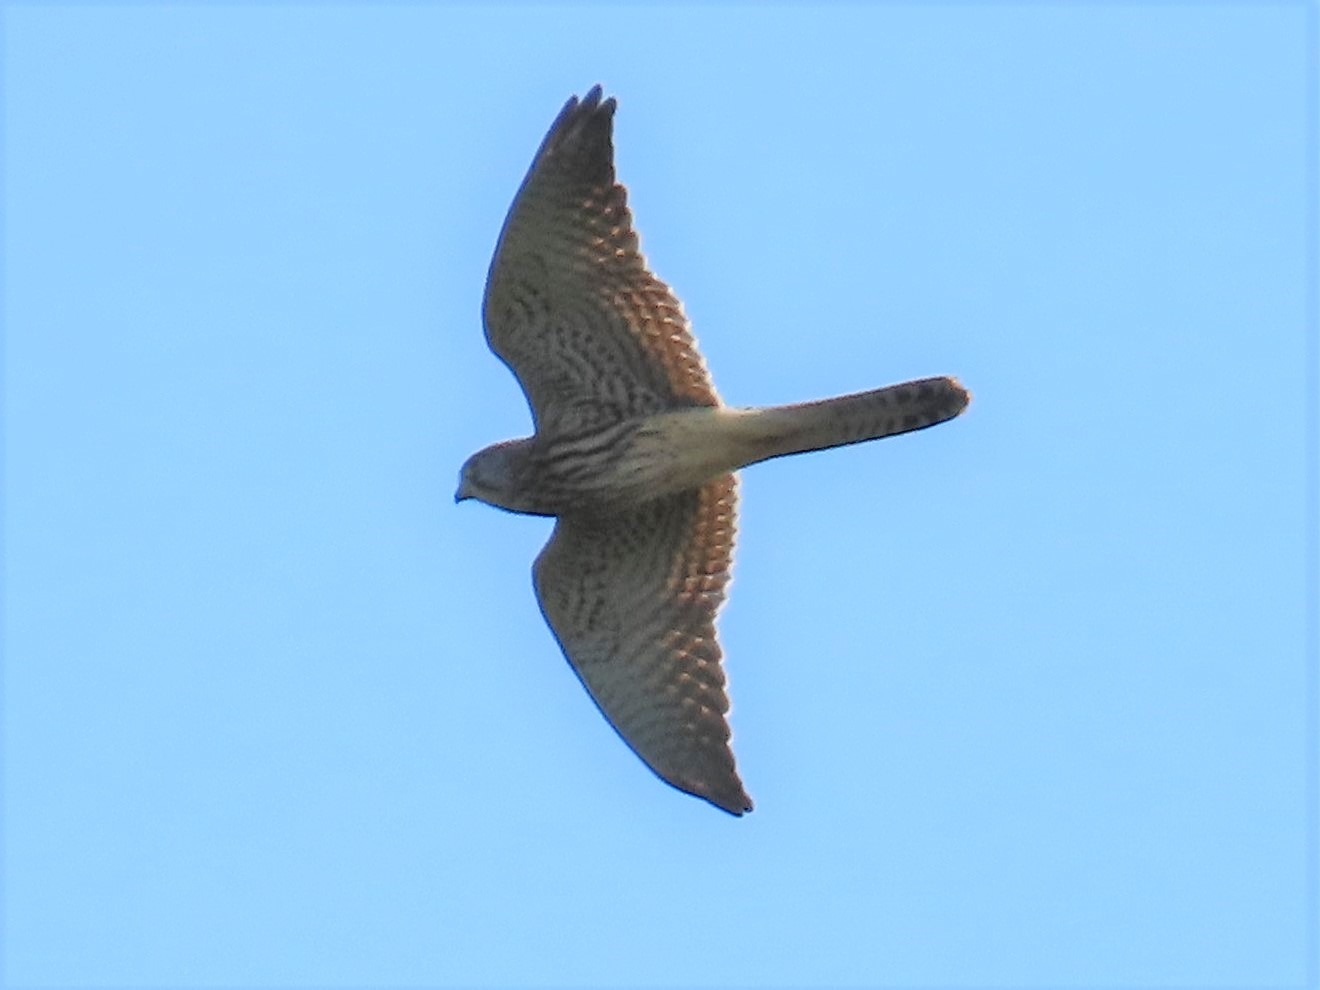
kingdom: Animalia
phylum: Chordata
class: Aves
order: Falconiformes
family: Falconidae
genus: Falco
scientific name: Falco tinnunculus
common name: Tårnfalk
